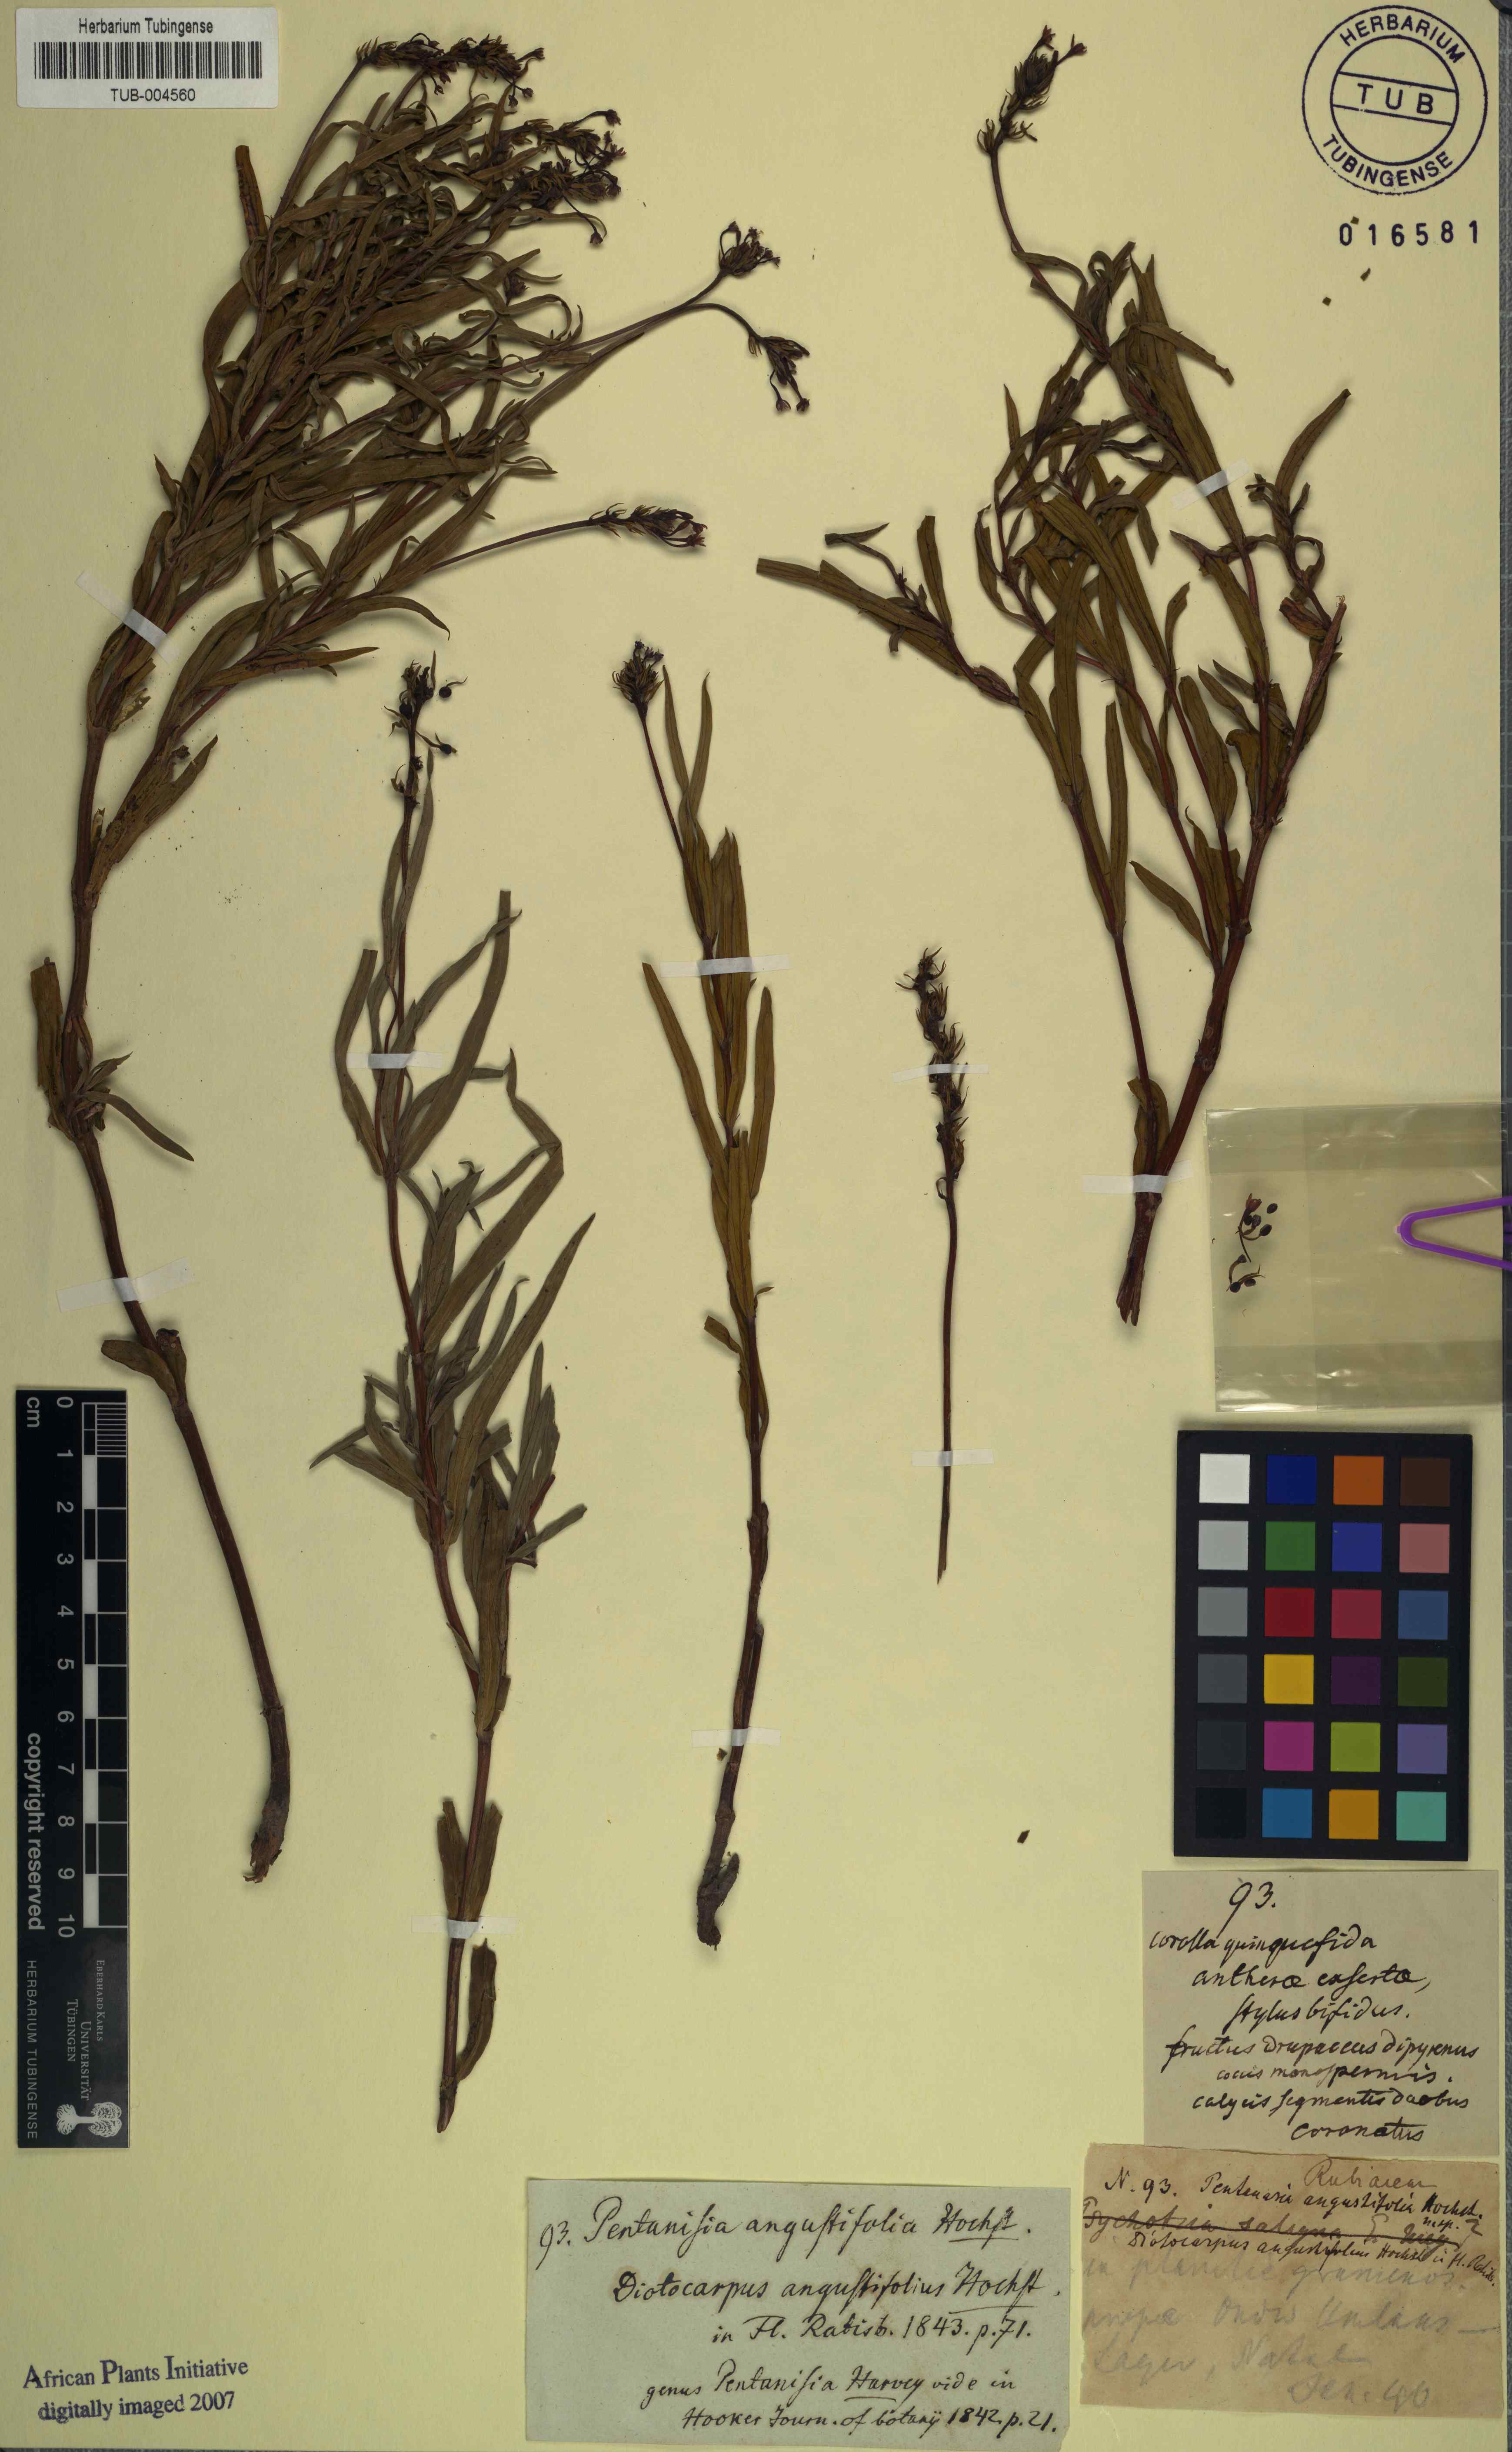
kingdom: Plantae
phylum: Tracheophyta
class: Magnoliopsida
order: Gentianales
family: Rubiaceae
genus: Pentanisia
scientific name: Pentanisia angustifolia
